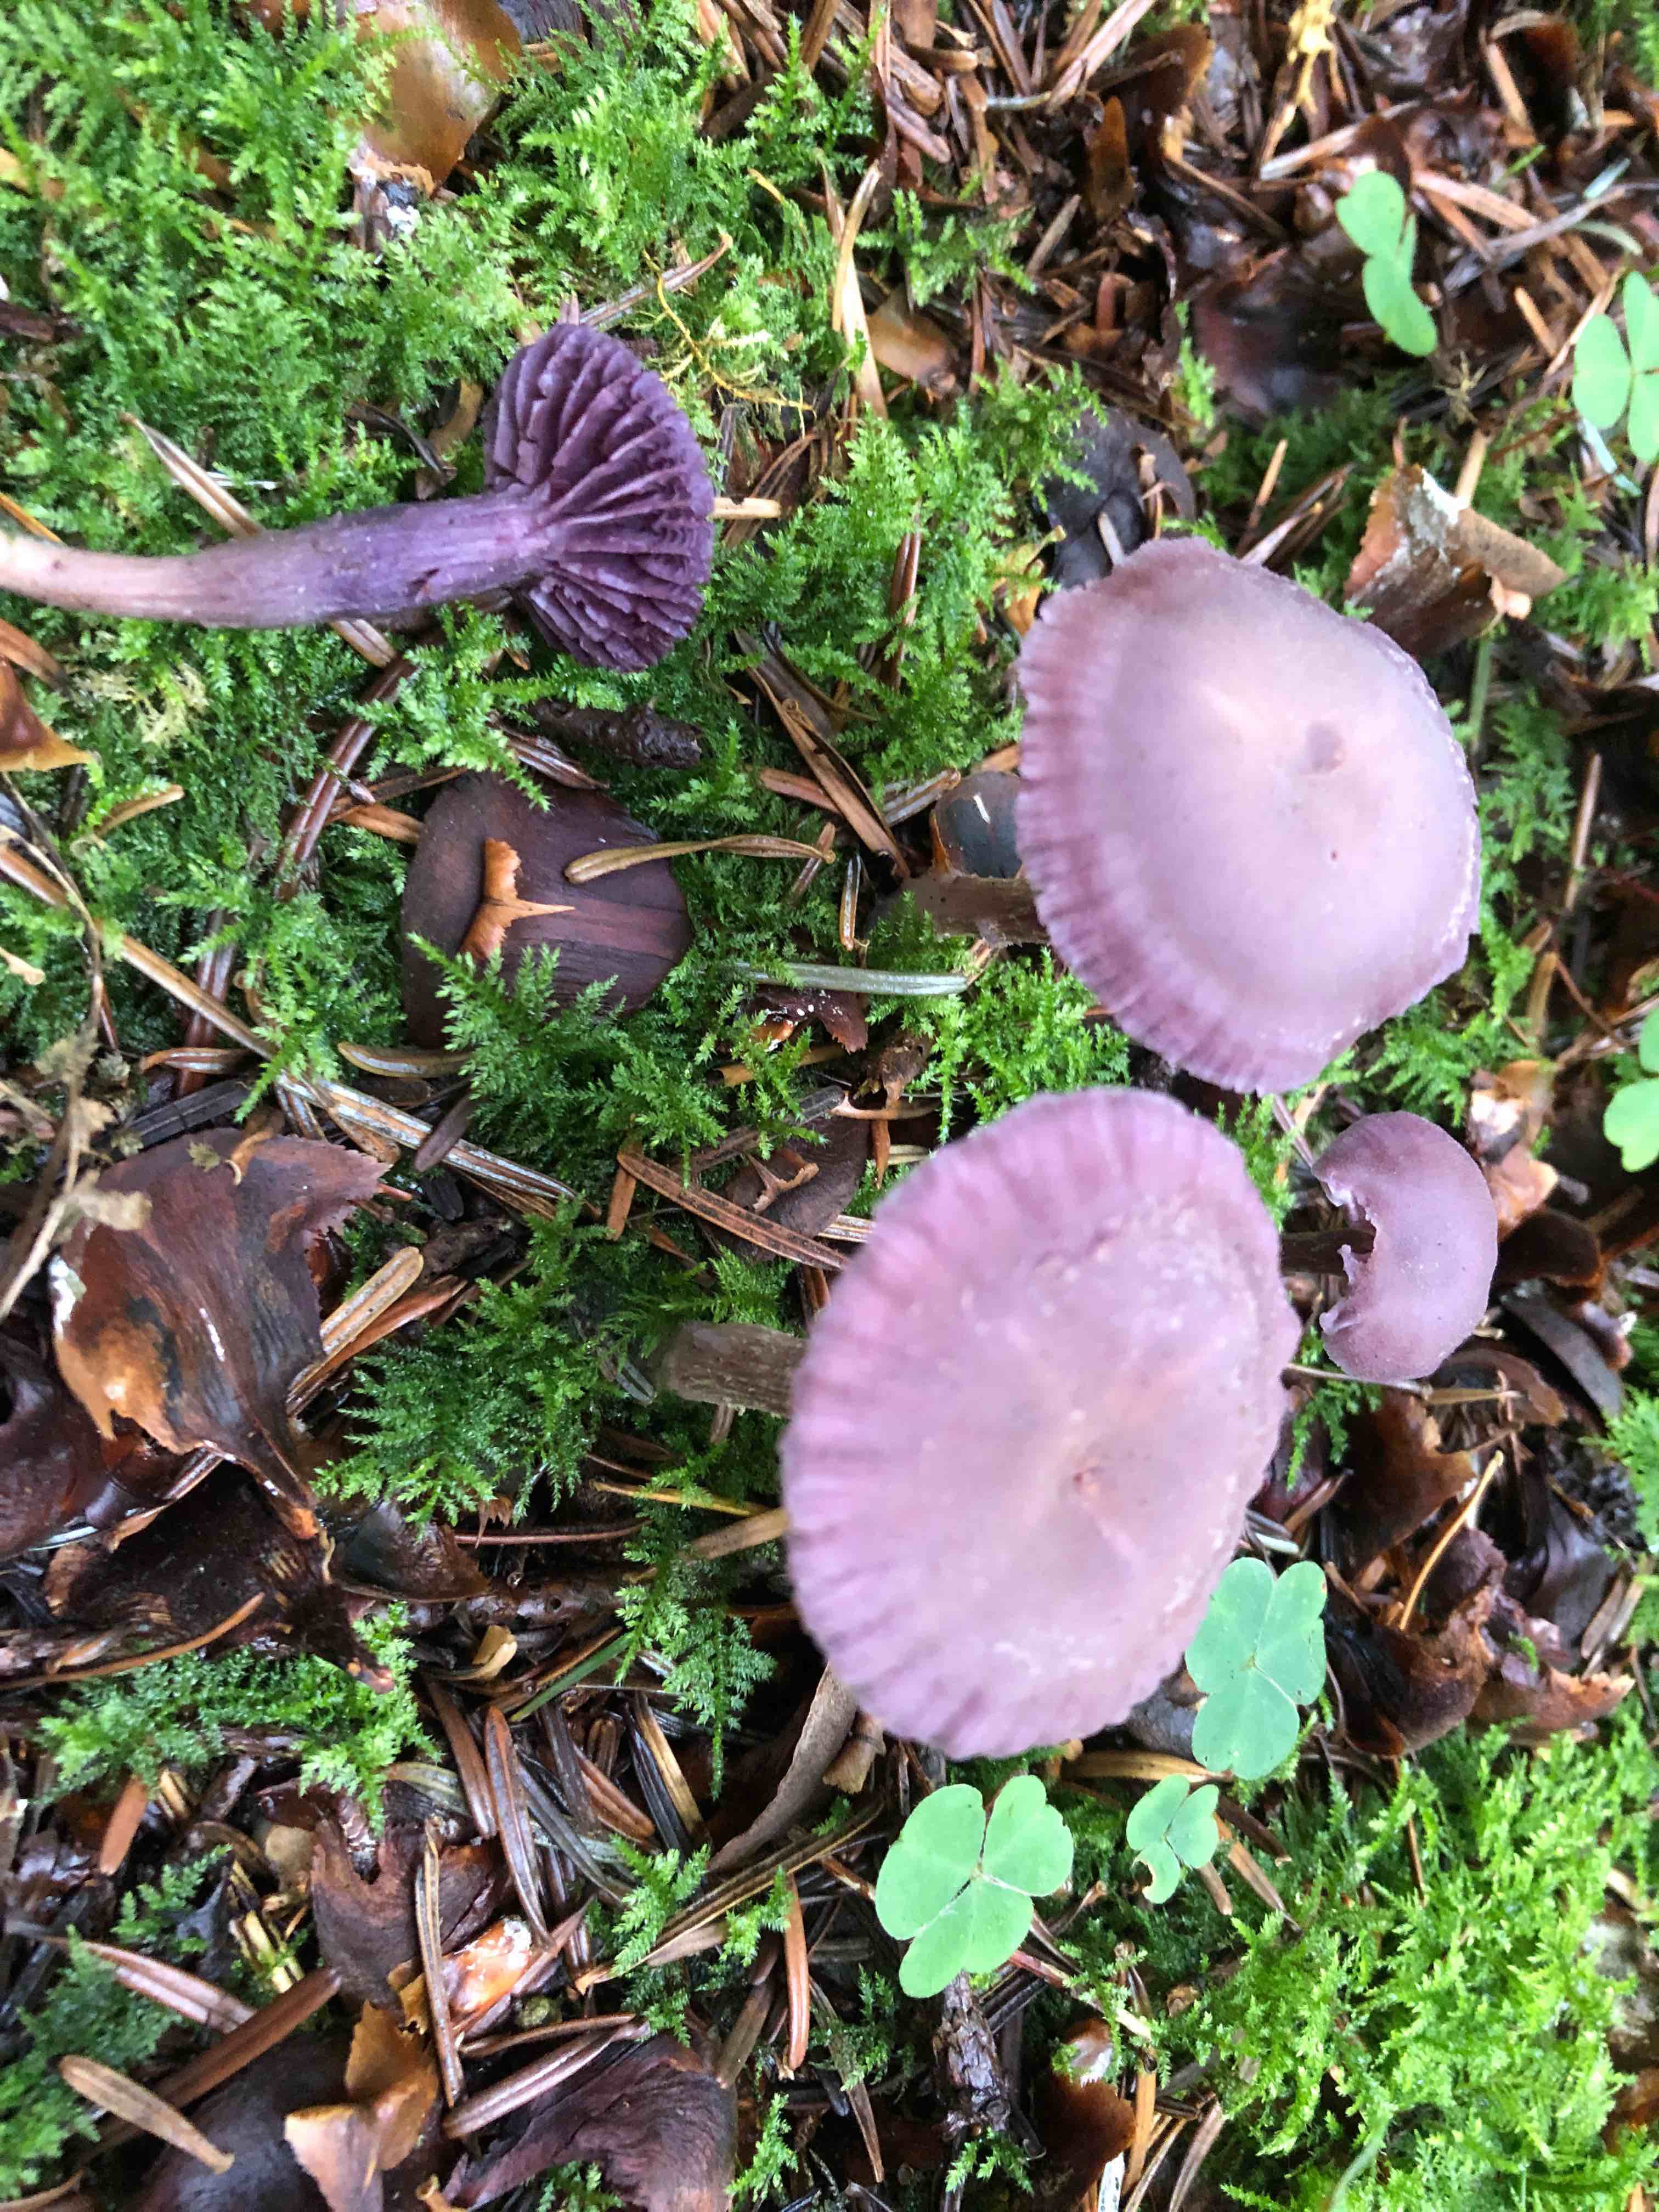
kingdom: Fungi
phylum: Basidiomycota
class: Agaricomycetes
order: Agaricales
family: Hydnangiaceae
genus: Laccaria
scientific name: Laccaria amethystina
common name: violet ametysthat
